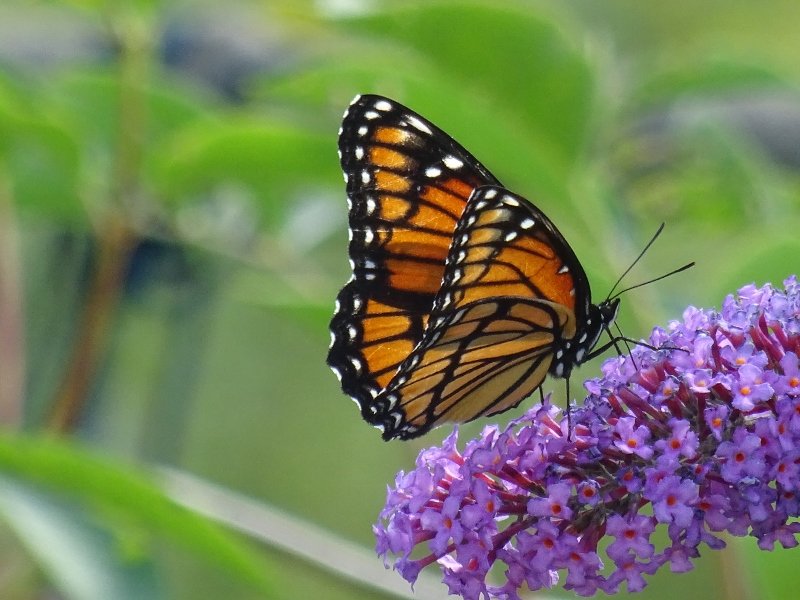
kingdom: Animalia
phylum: Arthropoda
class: Insecta
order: Lepidoptera
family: Nymphalidae
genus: Limenitis
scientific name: Limenitis archippus
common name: Viceroy
